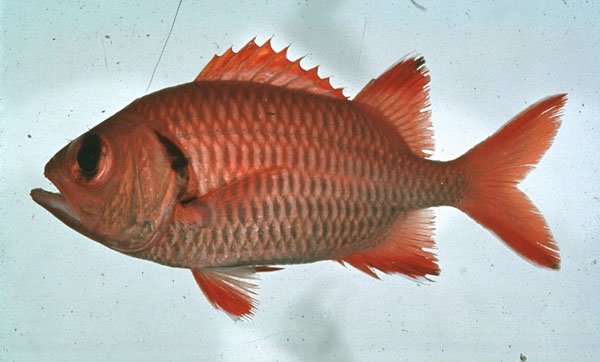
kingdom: Animalia
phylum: Chordata
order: Beryciformes
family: Holocentridae
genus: Myripristis
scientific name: Myripristis berndti
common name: Bigscale soldierfish
